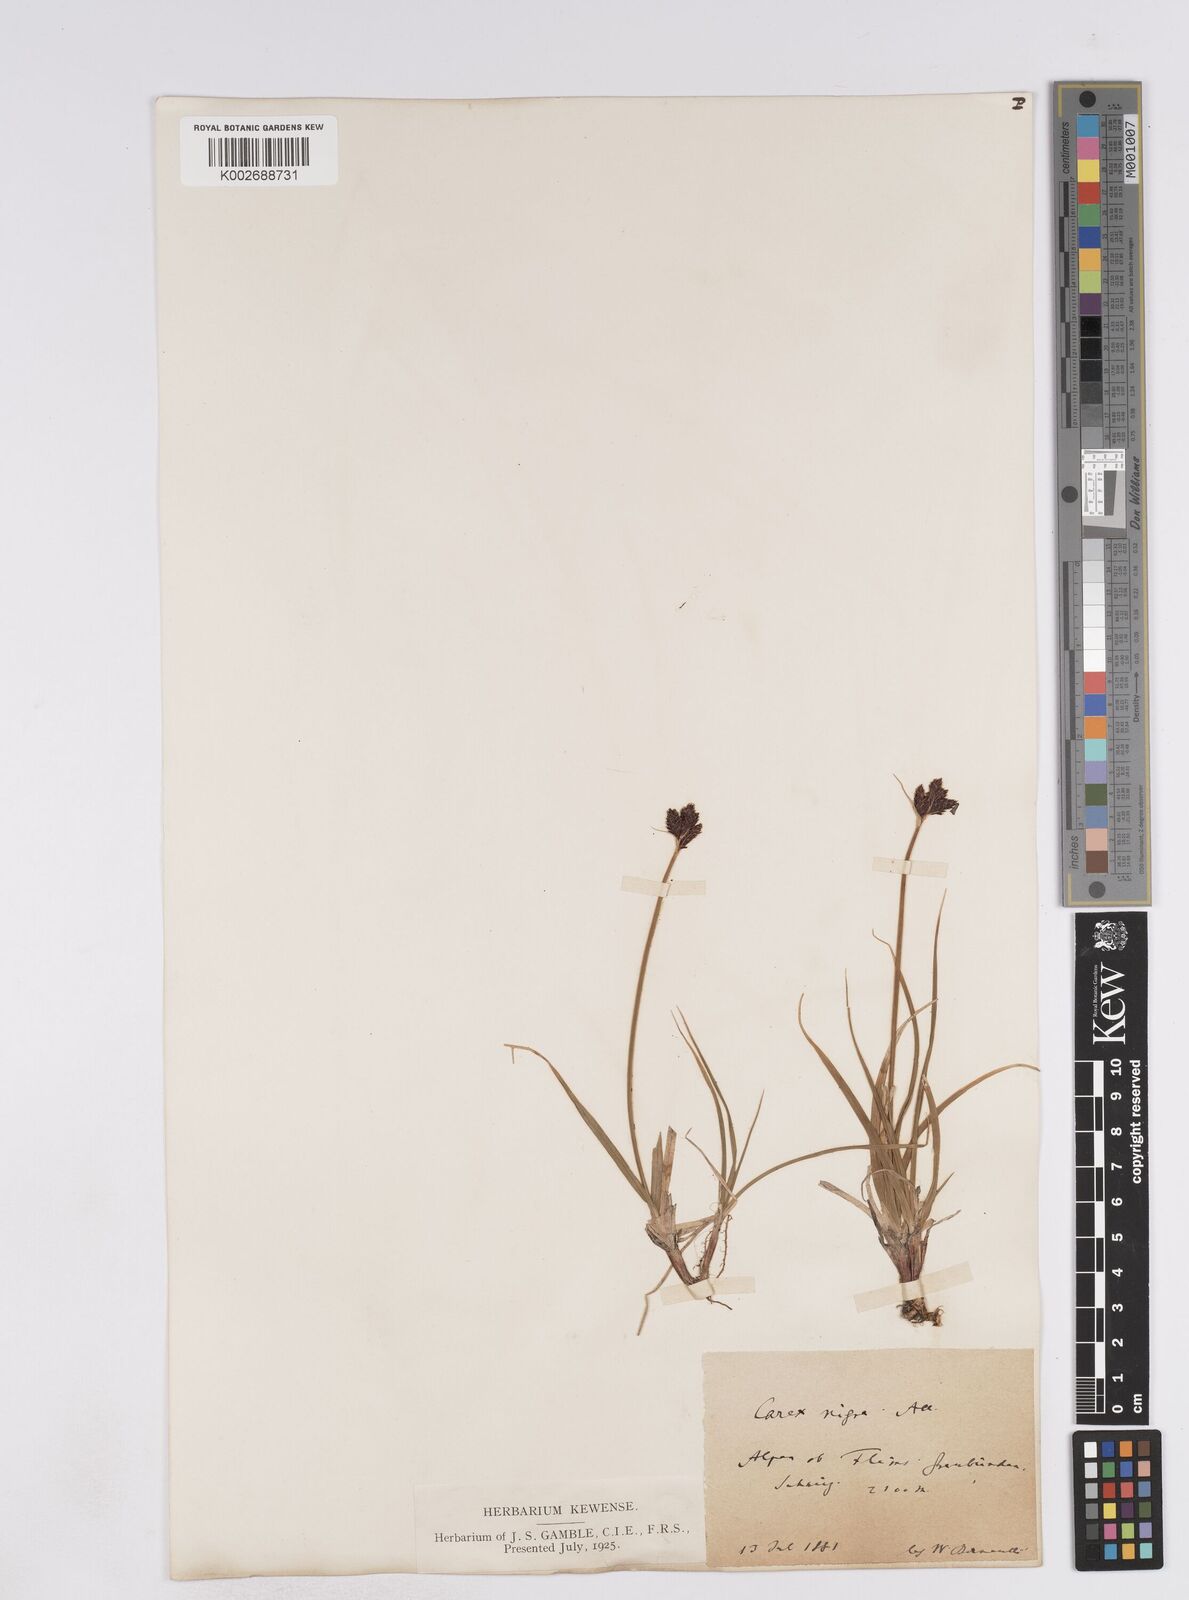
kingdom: Plantae
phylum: Tracheophyta
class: Liliopsida
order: Poales
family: Cyperaceae
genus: Carex
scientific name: Carex parviflora
